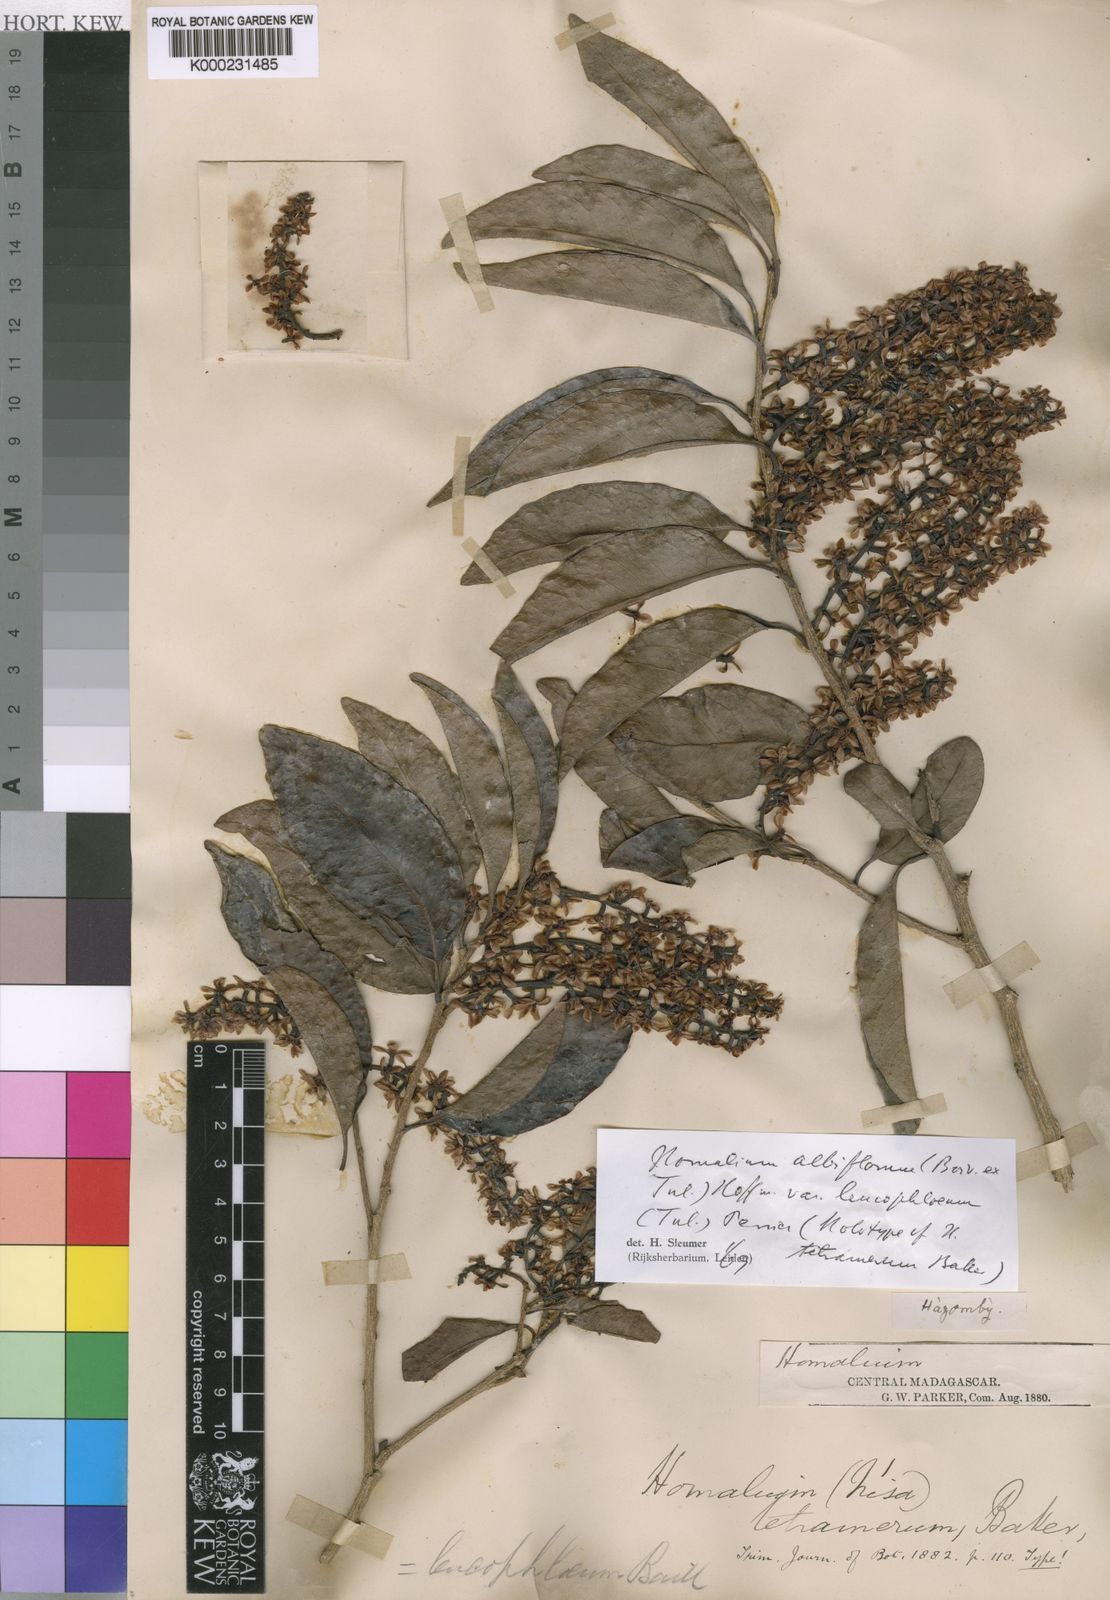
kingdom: Plantae
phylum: Tracheophyta
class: Magnoliopsida
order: Malpighiales
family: Salicaceae
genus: Homalium
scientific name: Homalium albiflorum
